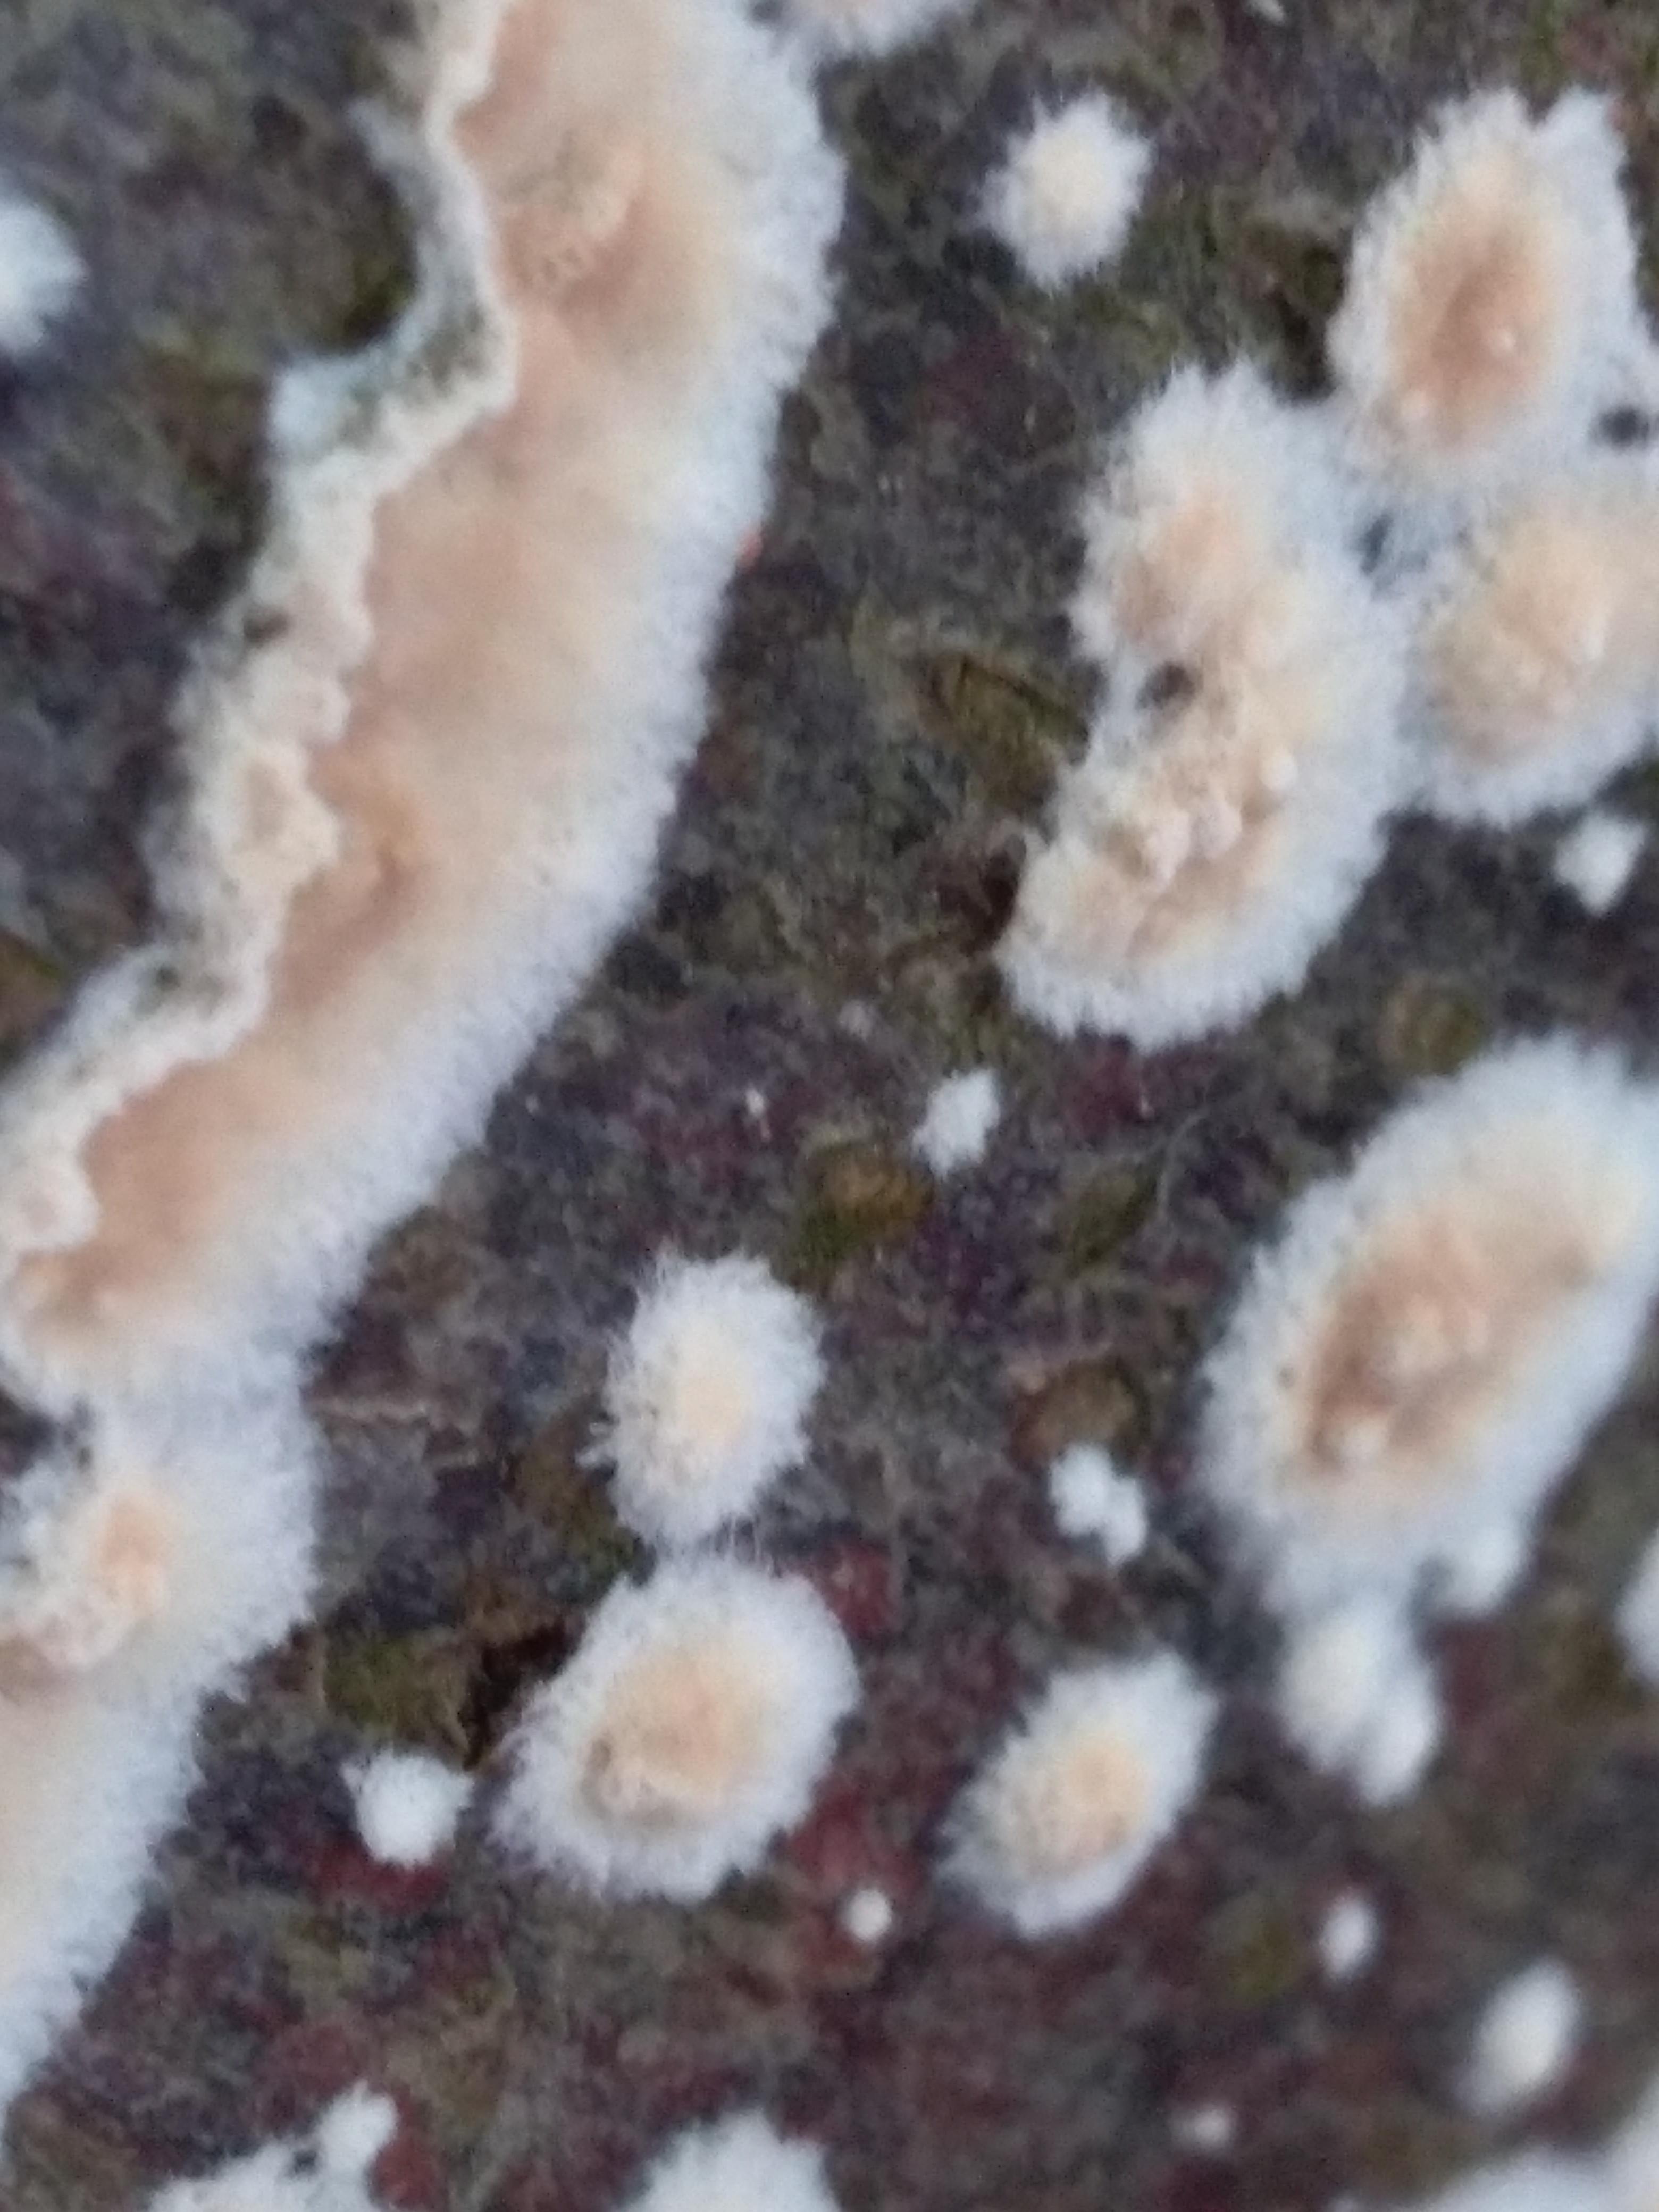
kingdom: Fungi
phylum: Basidiomycota
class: Agaricomycetes
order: Agaricales
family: Physalacriaceae
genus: Cylindrobasidium
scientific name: Cylindrobasidium evolvens
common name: sprækkehinde
